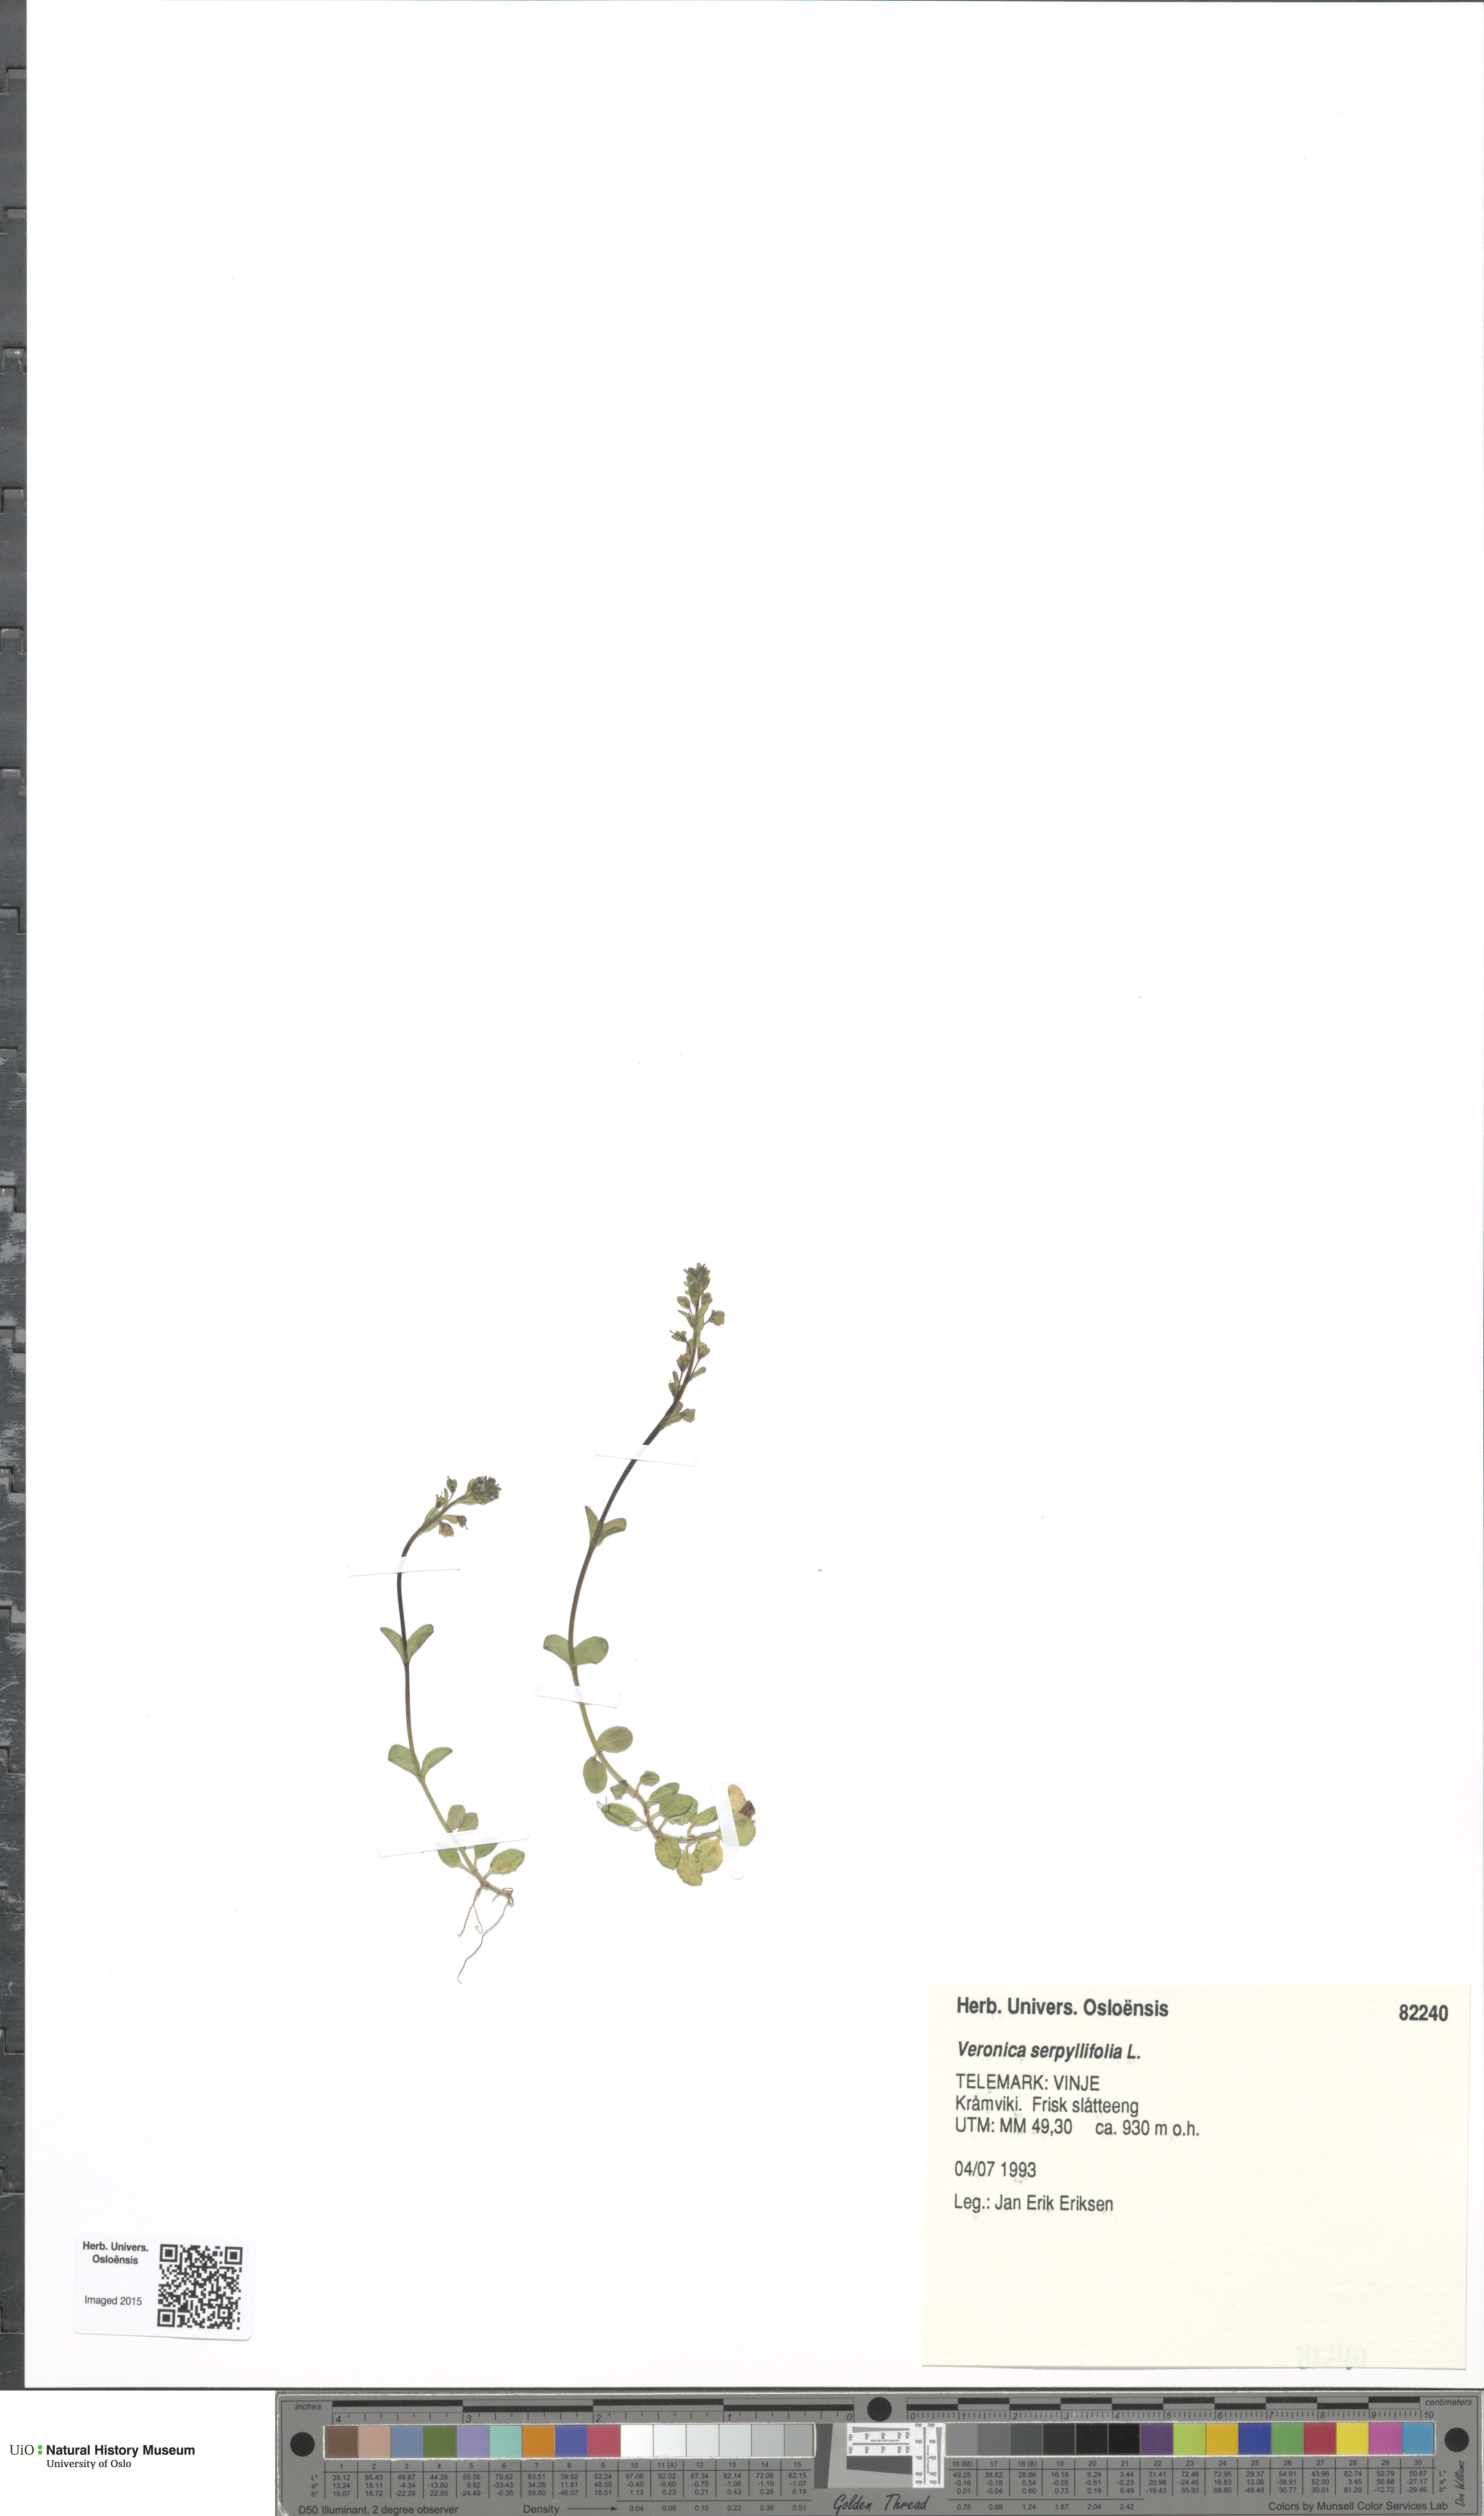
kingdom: Plantae
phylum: Tracheophyta
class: Magnoliopsida
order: Lamiales
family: Plantaginaceae
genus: Veronica
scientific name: Veronica serpyllifolia
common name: Thyme-leaved speedwell
